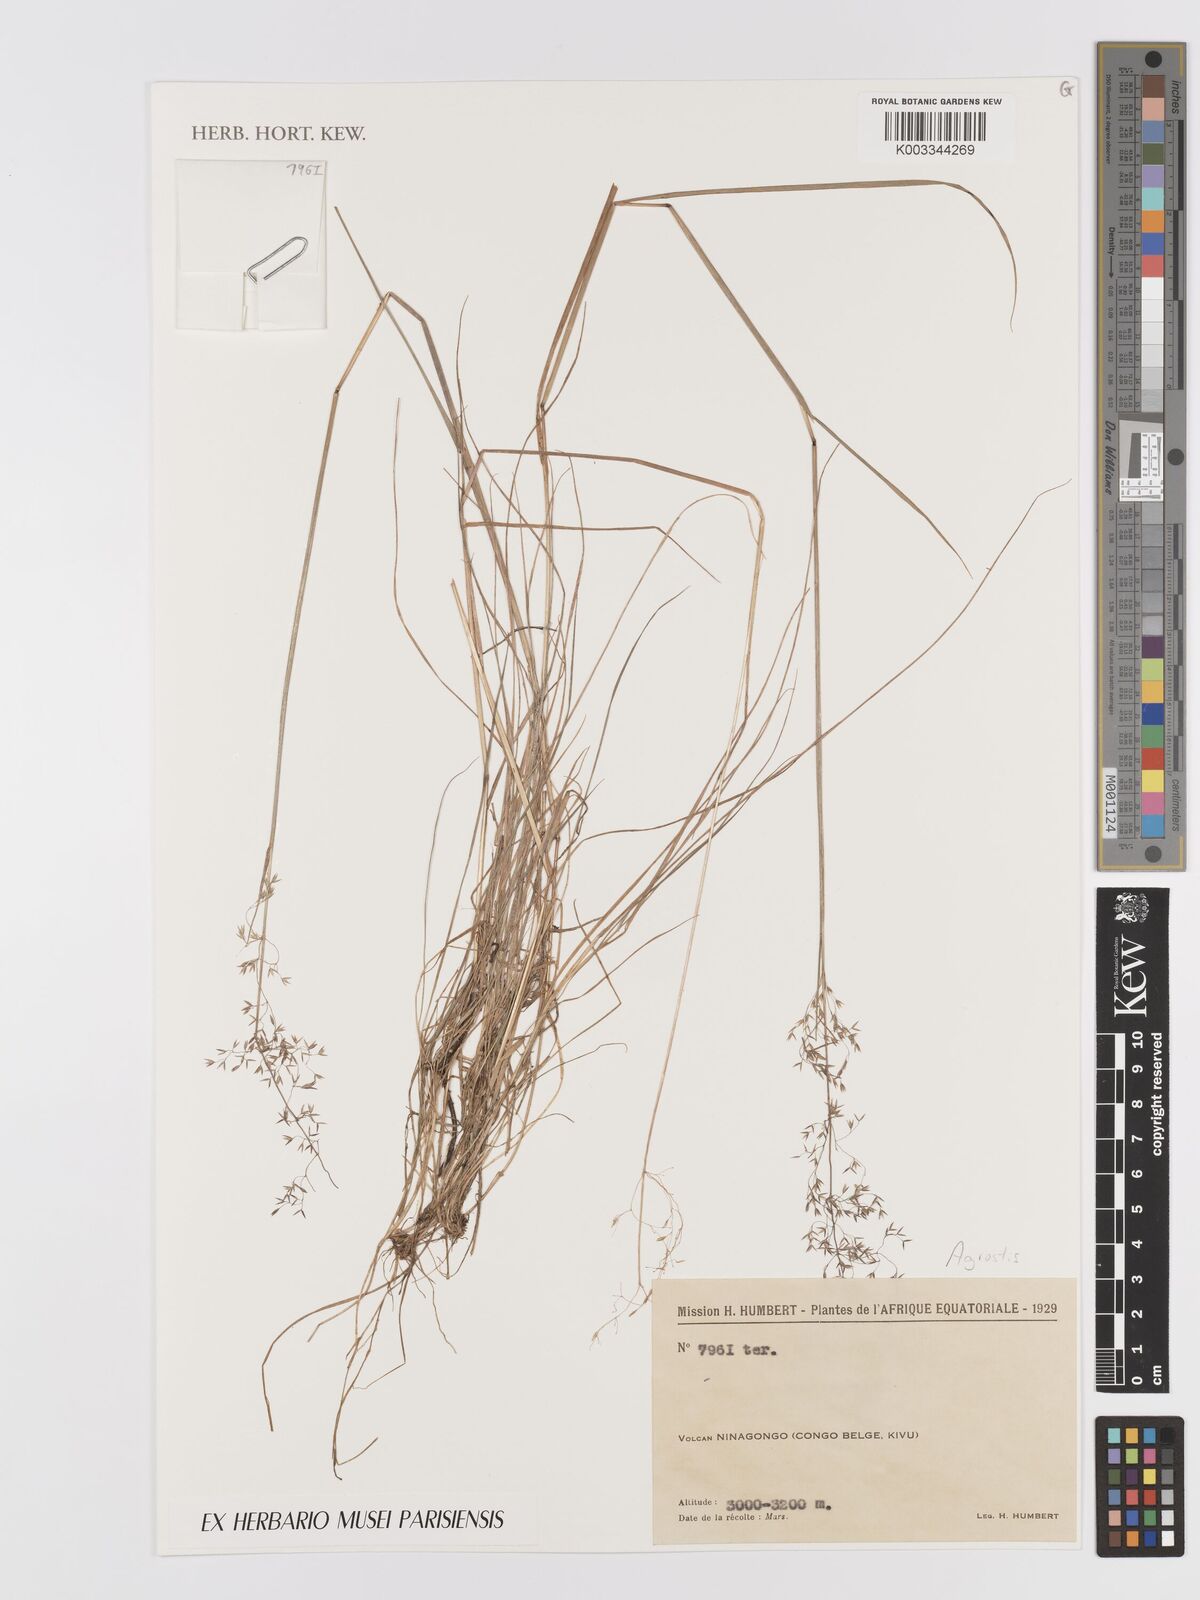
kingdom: Plantae
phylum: Tracheophyta
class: Liliopsida
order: Poales
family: Poaceae
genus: Agrostis
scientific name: Agrostis
